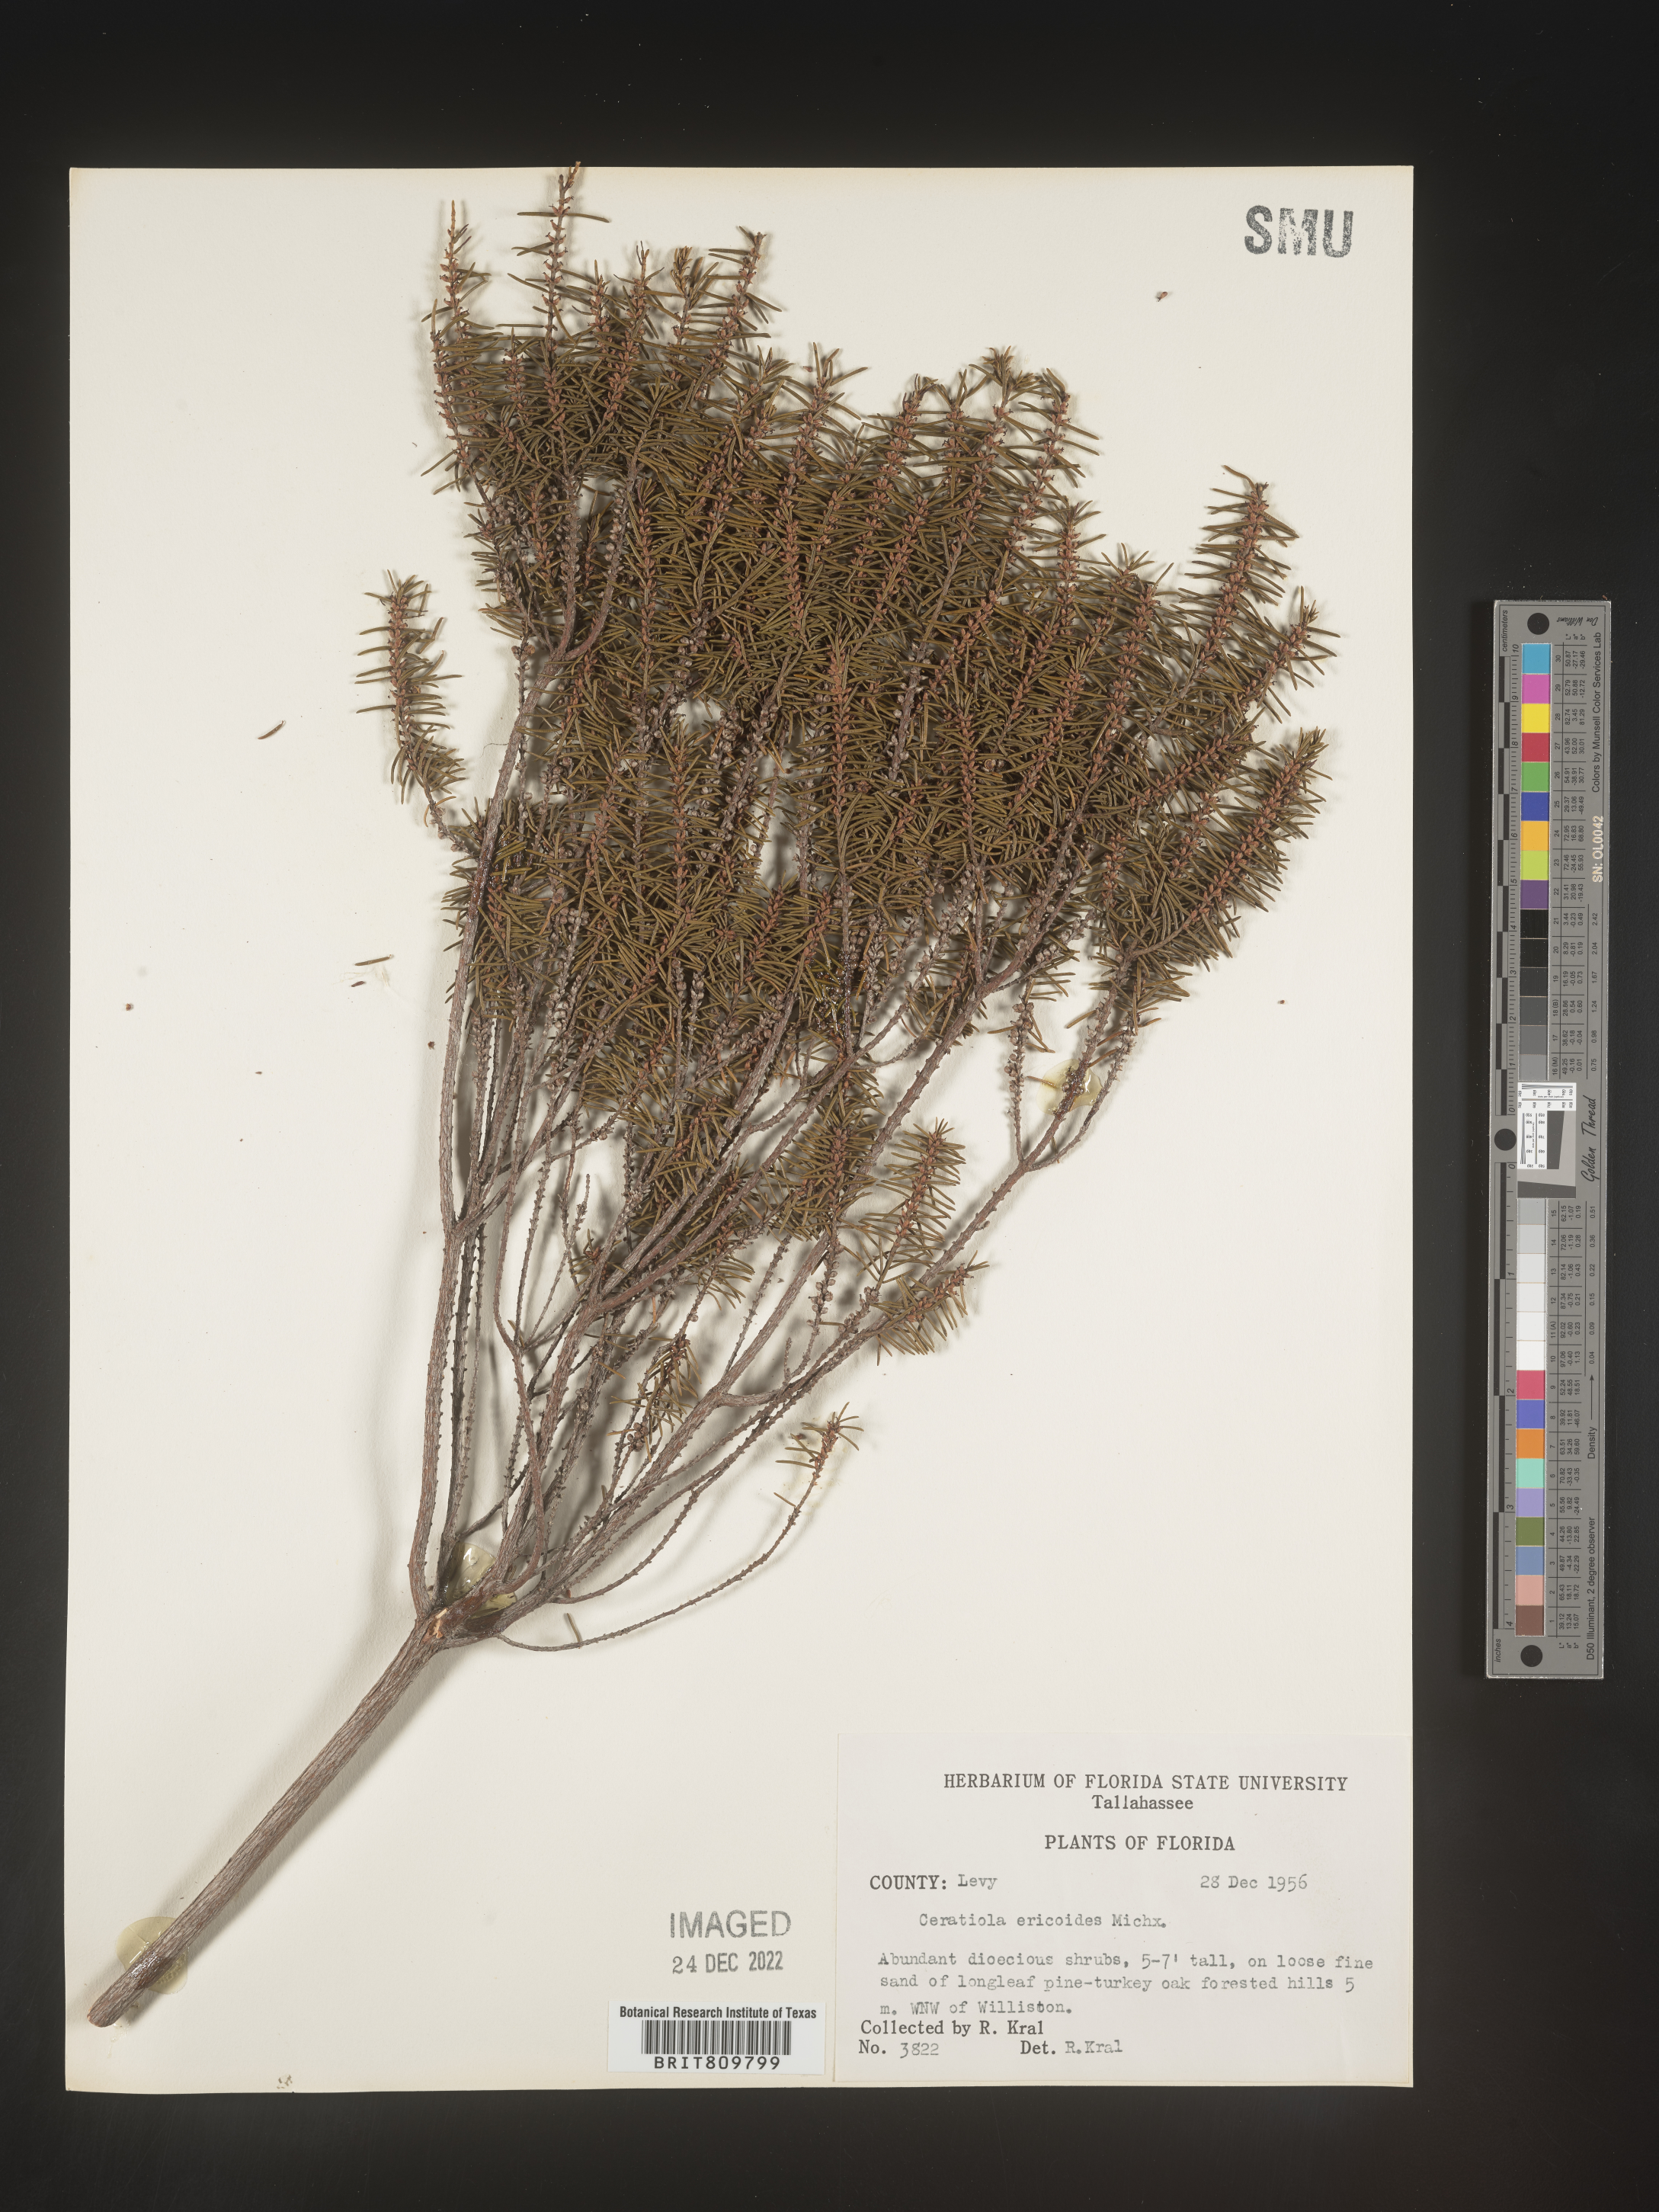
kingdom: Plantae
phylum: Tracheophyta
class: Magnoliopsida
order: Ericales
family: Ericaceae
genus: Ceratiola
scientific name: Ceratiola ericoides
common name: Sandhill-rosemary
